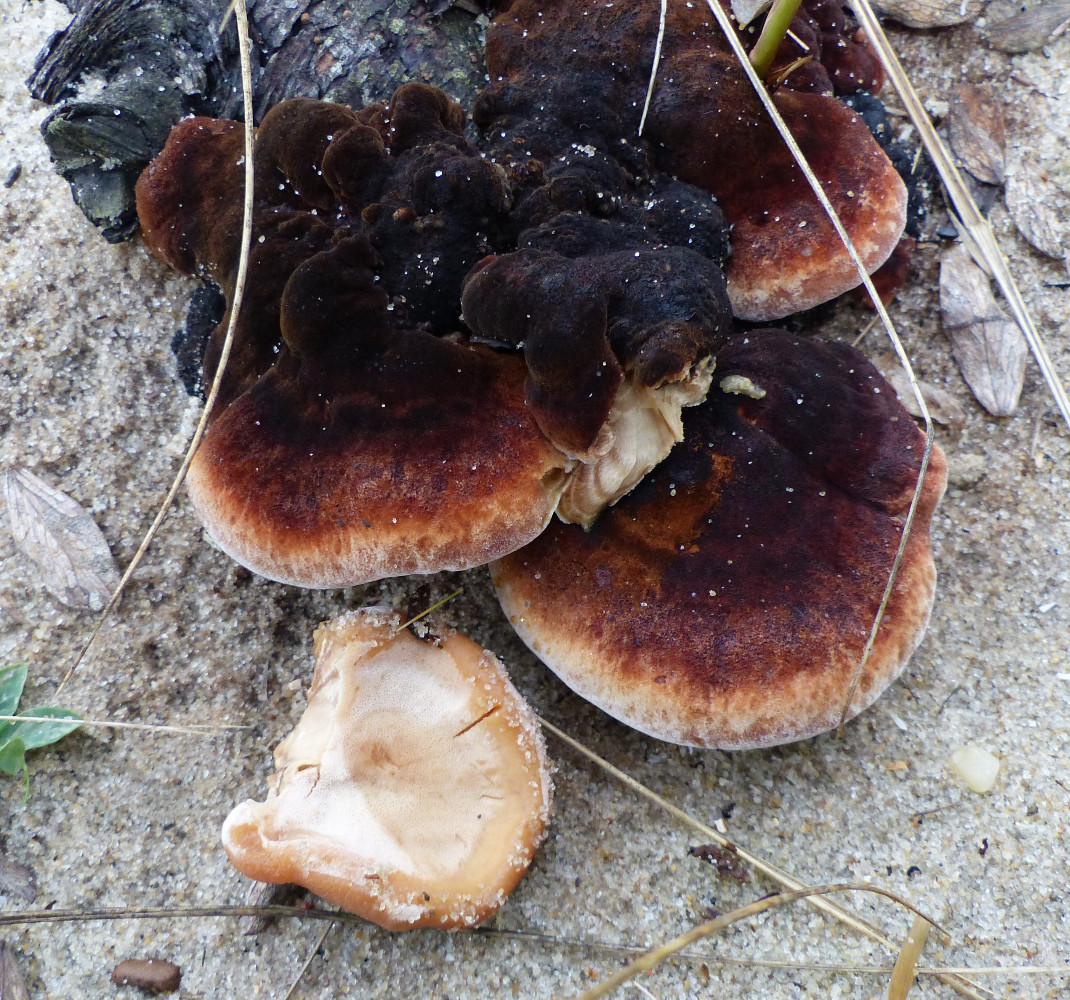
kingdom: Fungi
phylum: Basidiomycota
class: Agaricomycetes
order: Polyporales
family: Ischnodermataceae
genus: Ischnoderma
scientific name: Ischnoderma benzoinum
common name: gran-tjæreporesvamp
